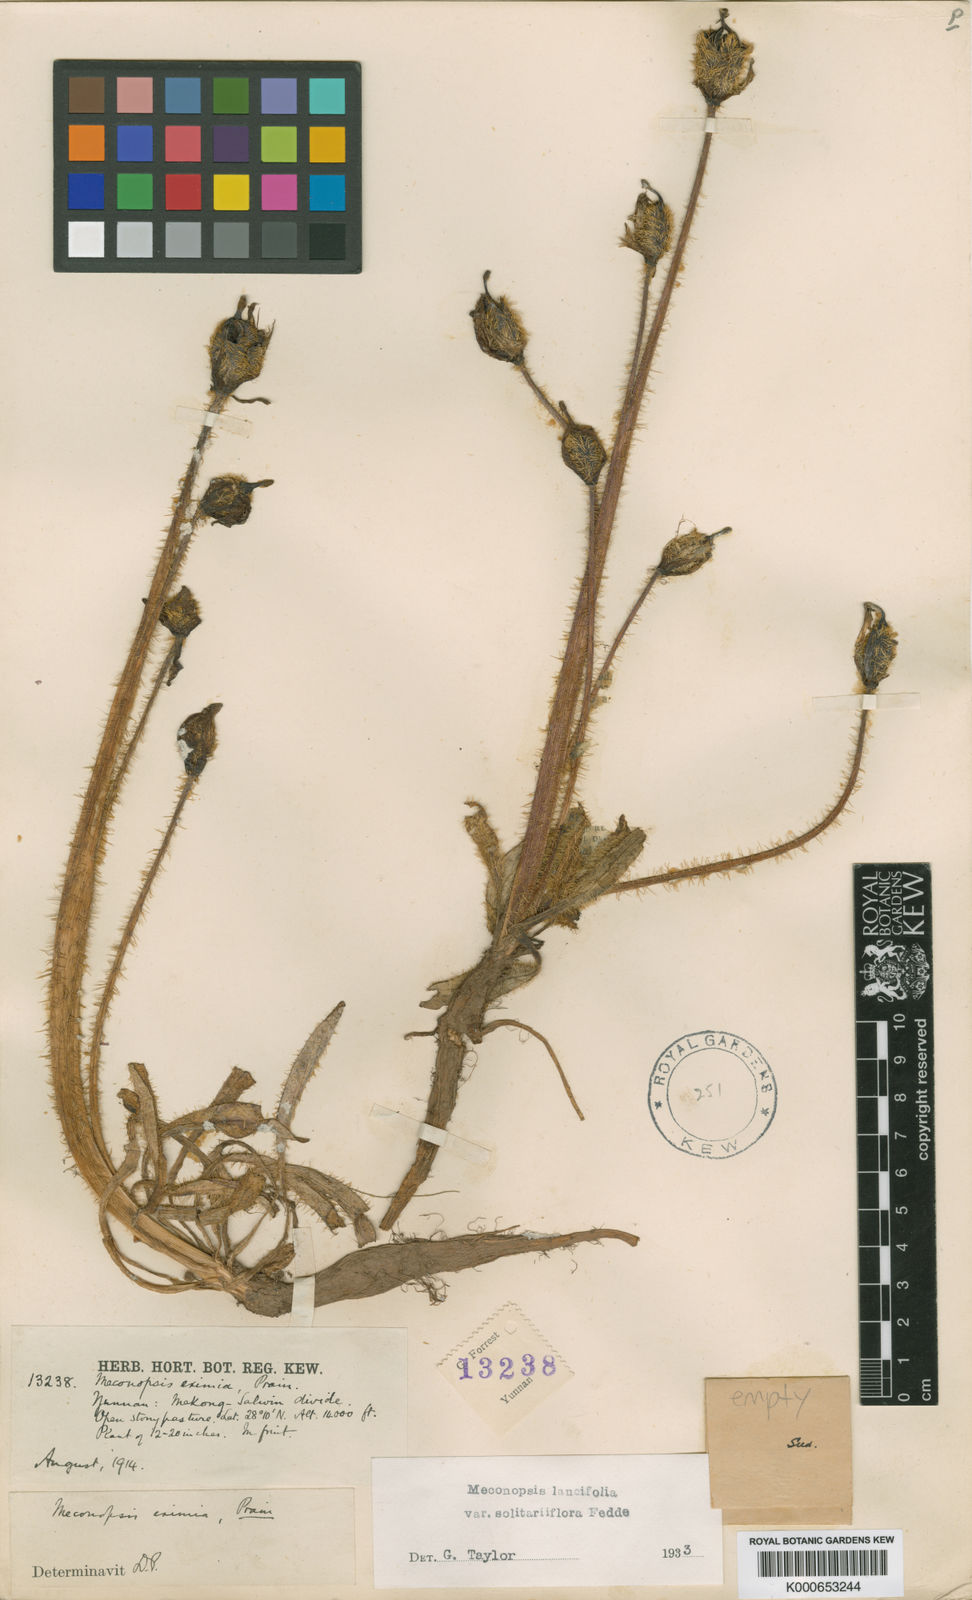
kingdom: Plantae
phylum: Tracheophyta
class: Magnoliopsida
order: Ranunculales
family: Papaveraceae
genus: Meconopsis
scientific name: Meconopsis lancifolia
